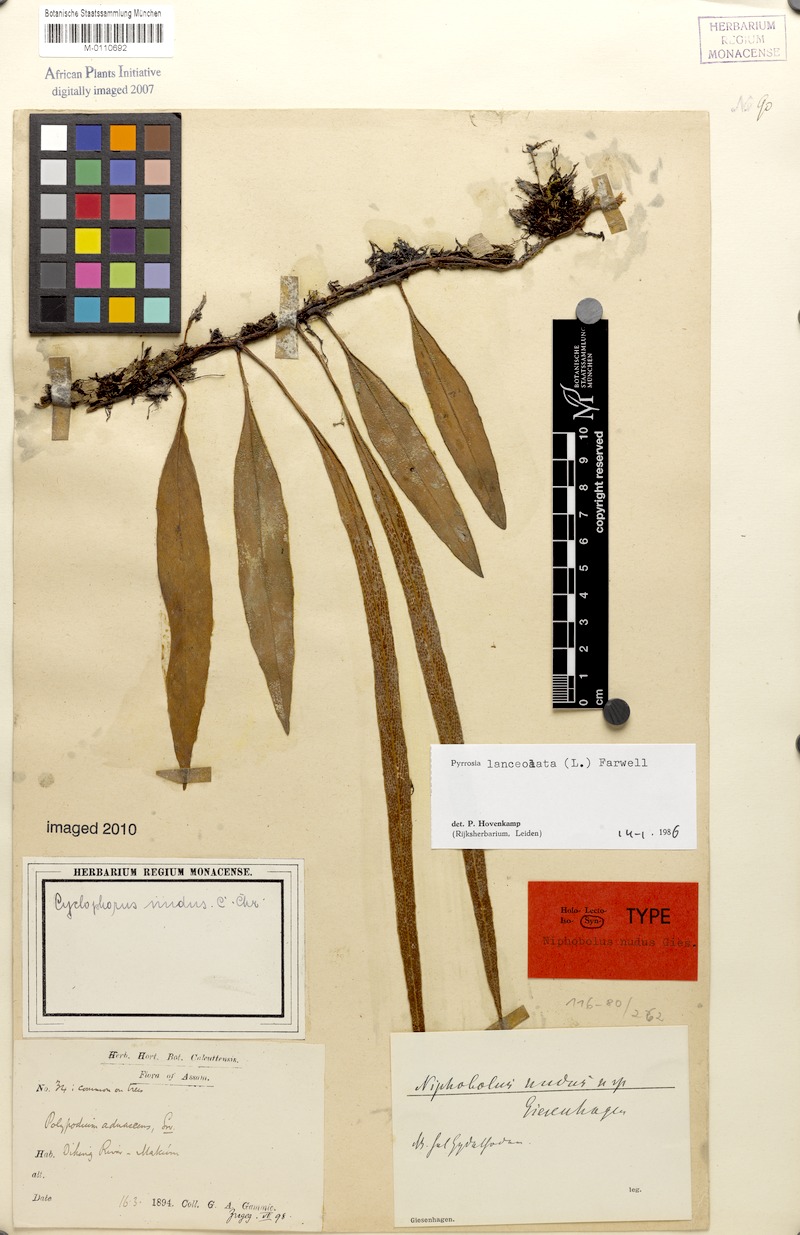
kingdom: Plantae
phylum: Tracheophyta
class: Polypodiopsida
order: Polypodiales
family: Polypodiaceae
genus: Pyrrosia
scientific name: Pyrrosia lanceolata
